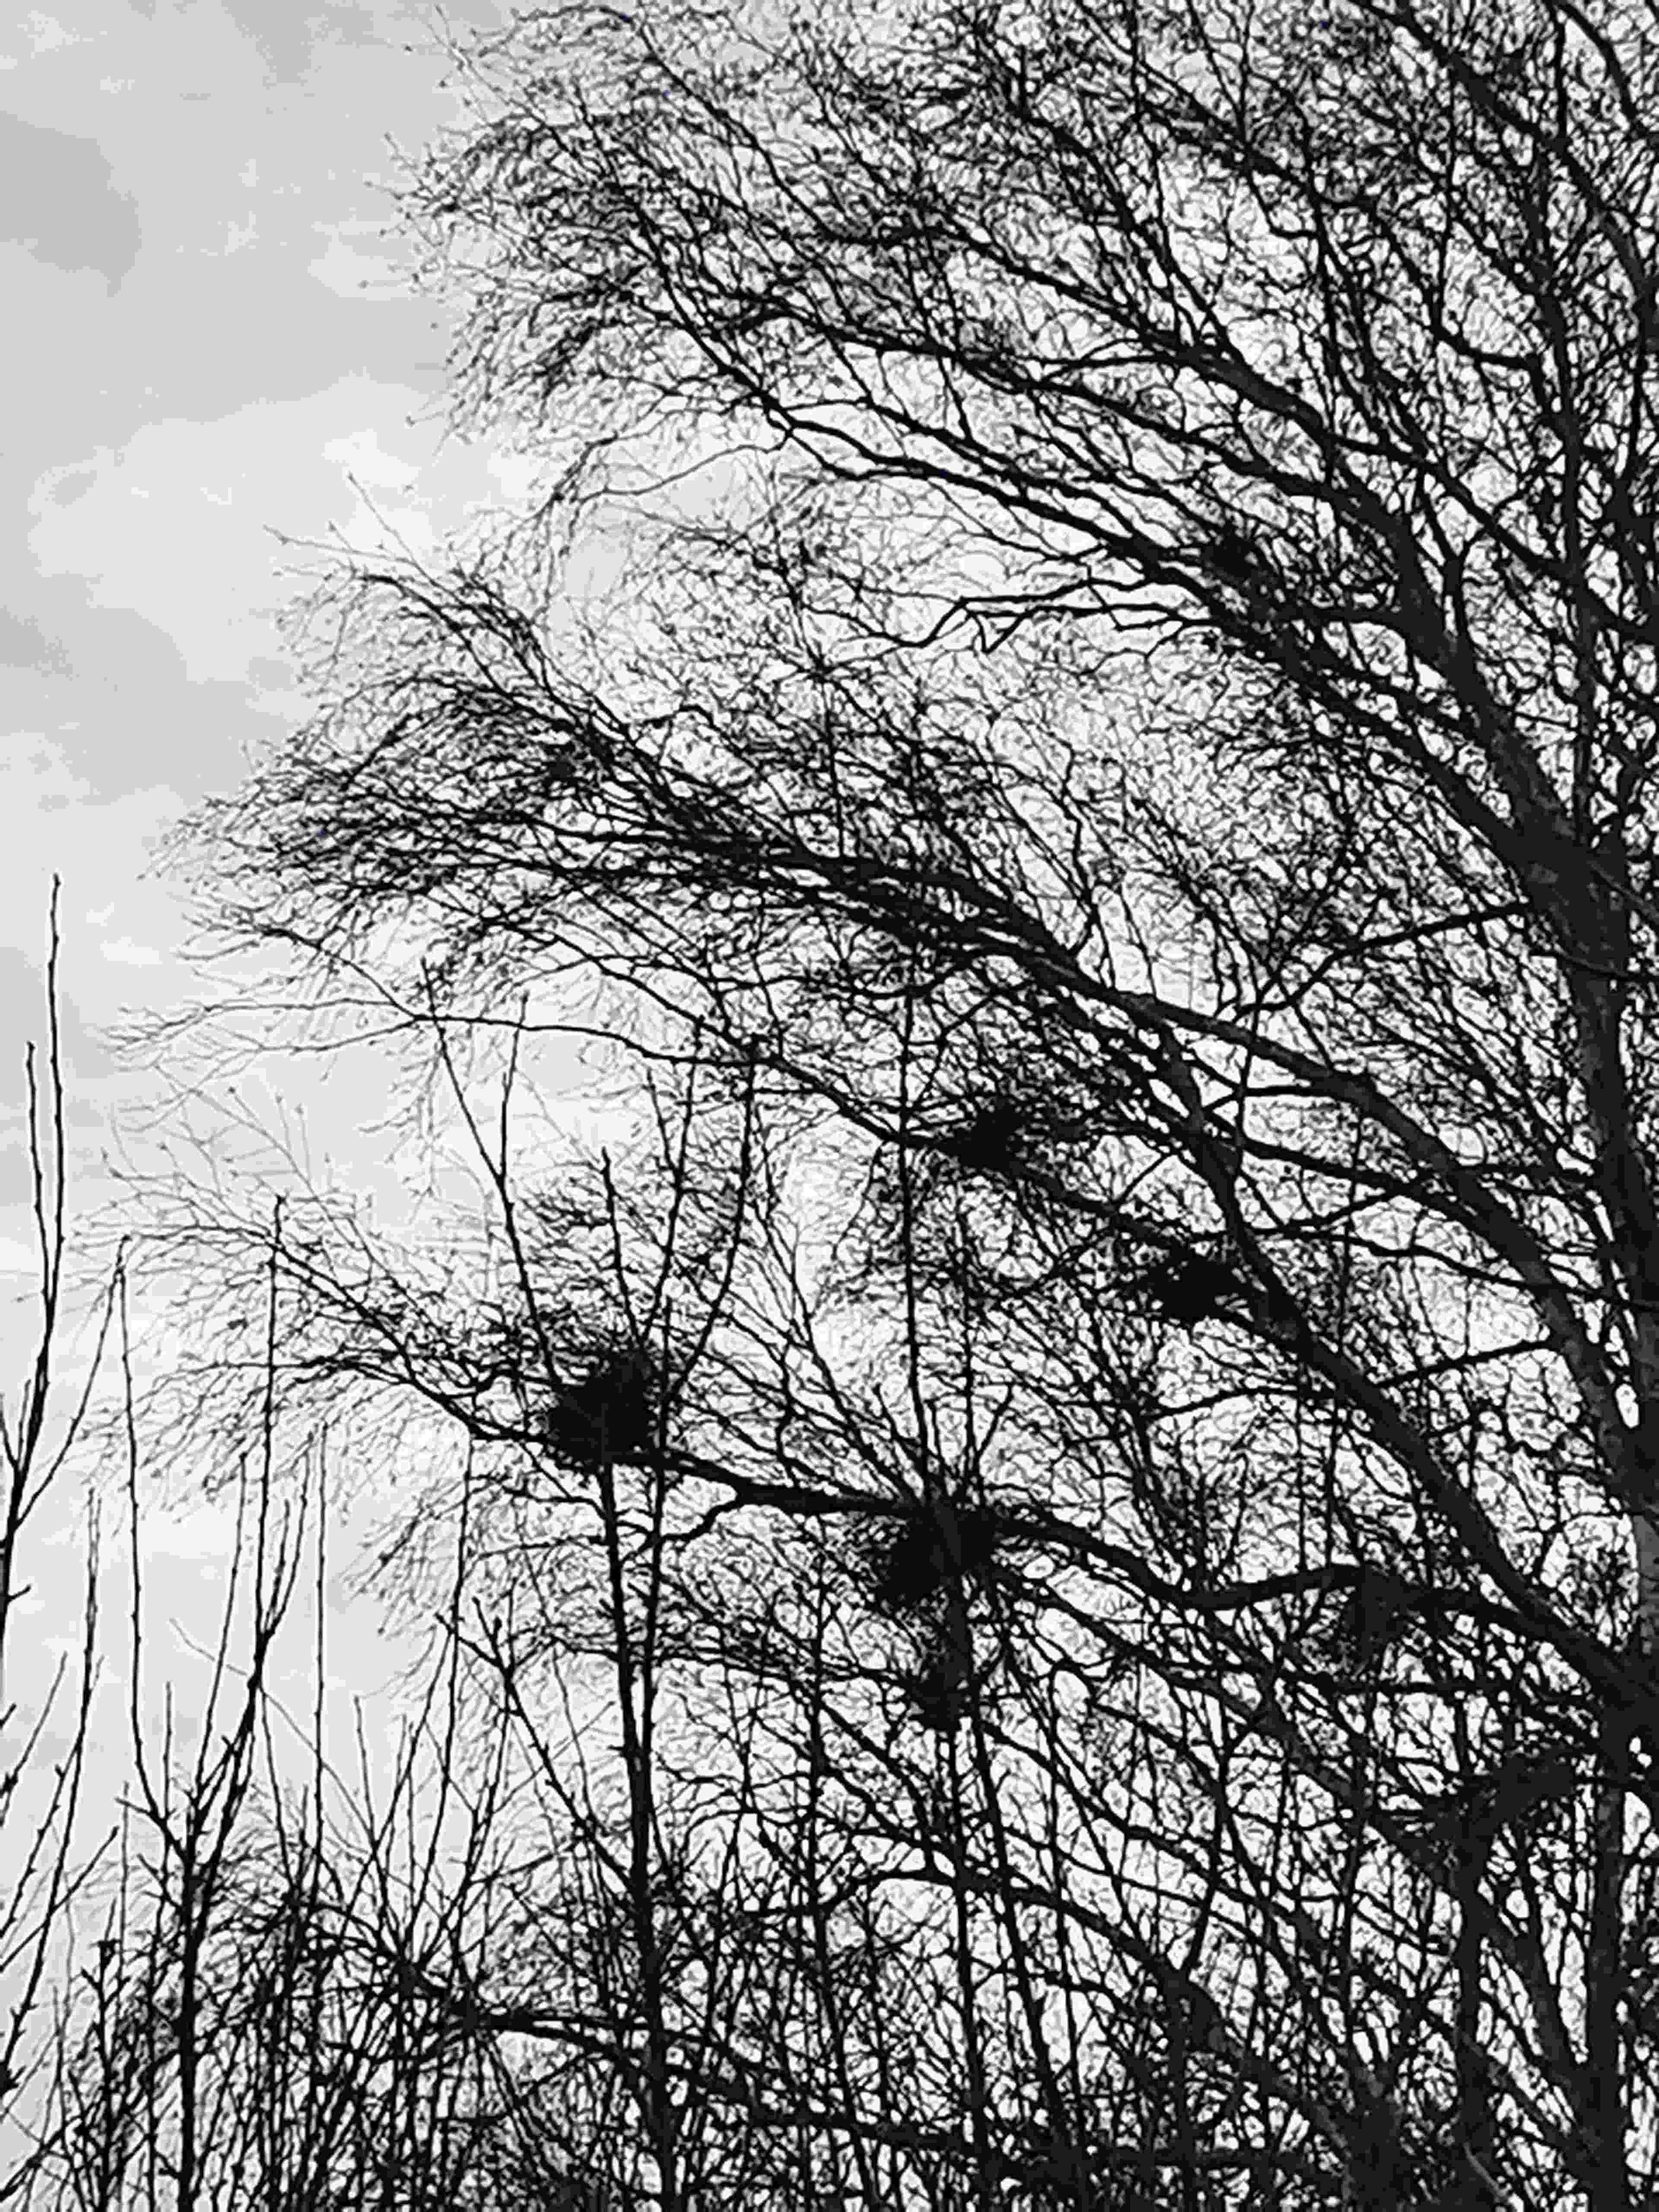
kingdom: Fungi
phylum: Ascomycota
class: Taphrinomycetes
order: Taphrinales
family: Taphrinaceae
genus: Taphrina
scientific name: Taphrina betulina
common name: hekse-sækdug
